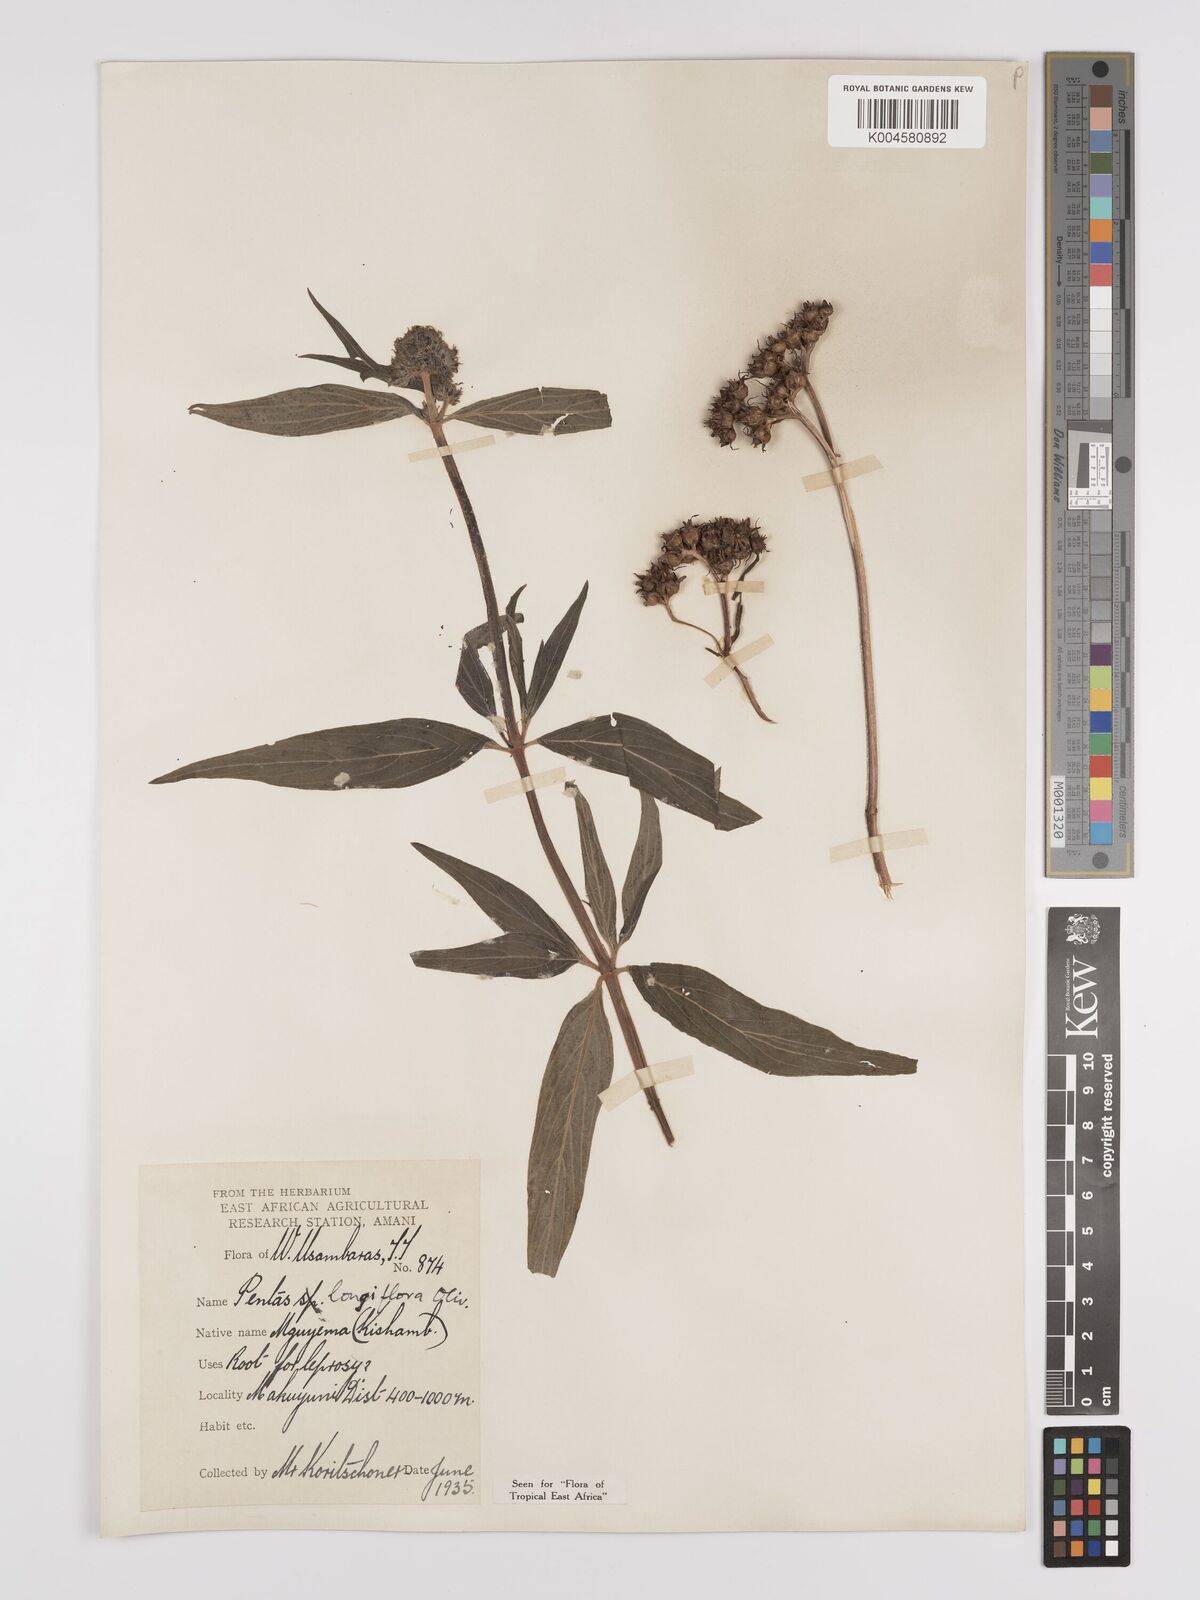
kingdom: Plantae
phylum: Tracheophyta
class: Magnoliopsida
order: Gentianales
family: Rubiaceae
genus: Dolichopentas
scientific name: Dolichopentas longiflora
